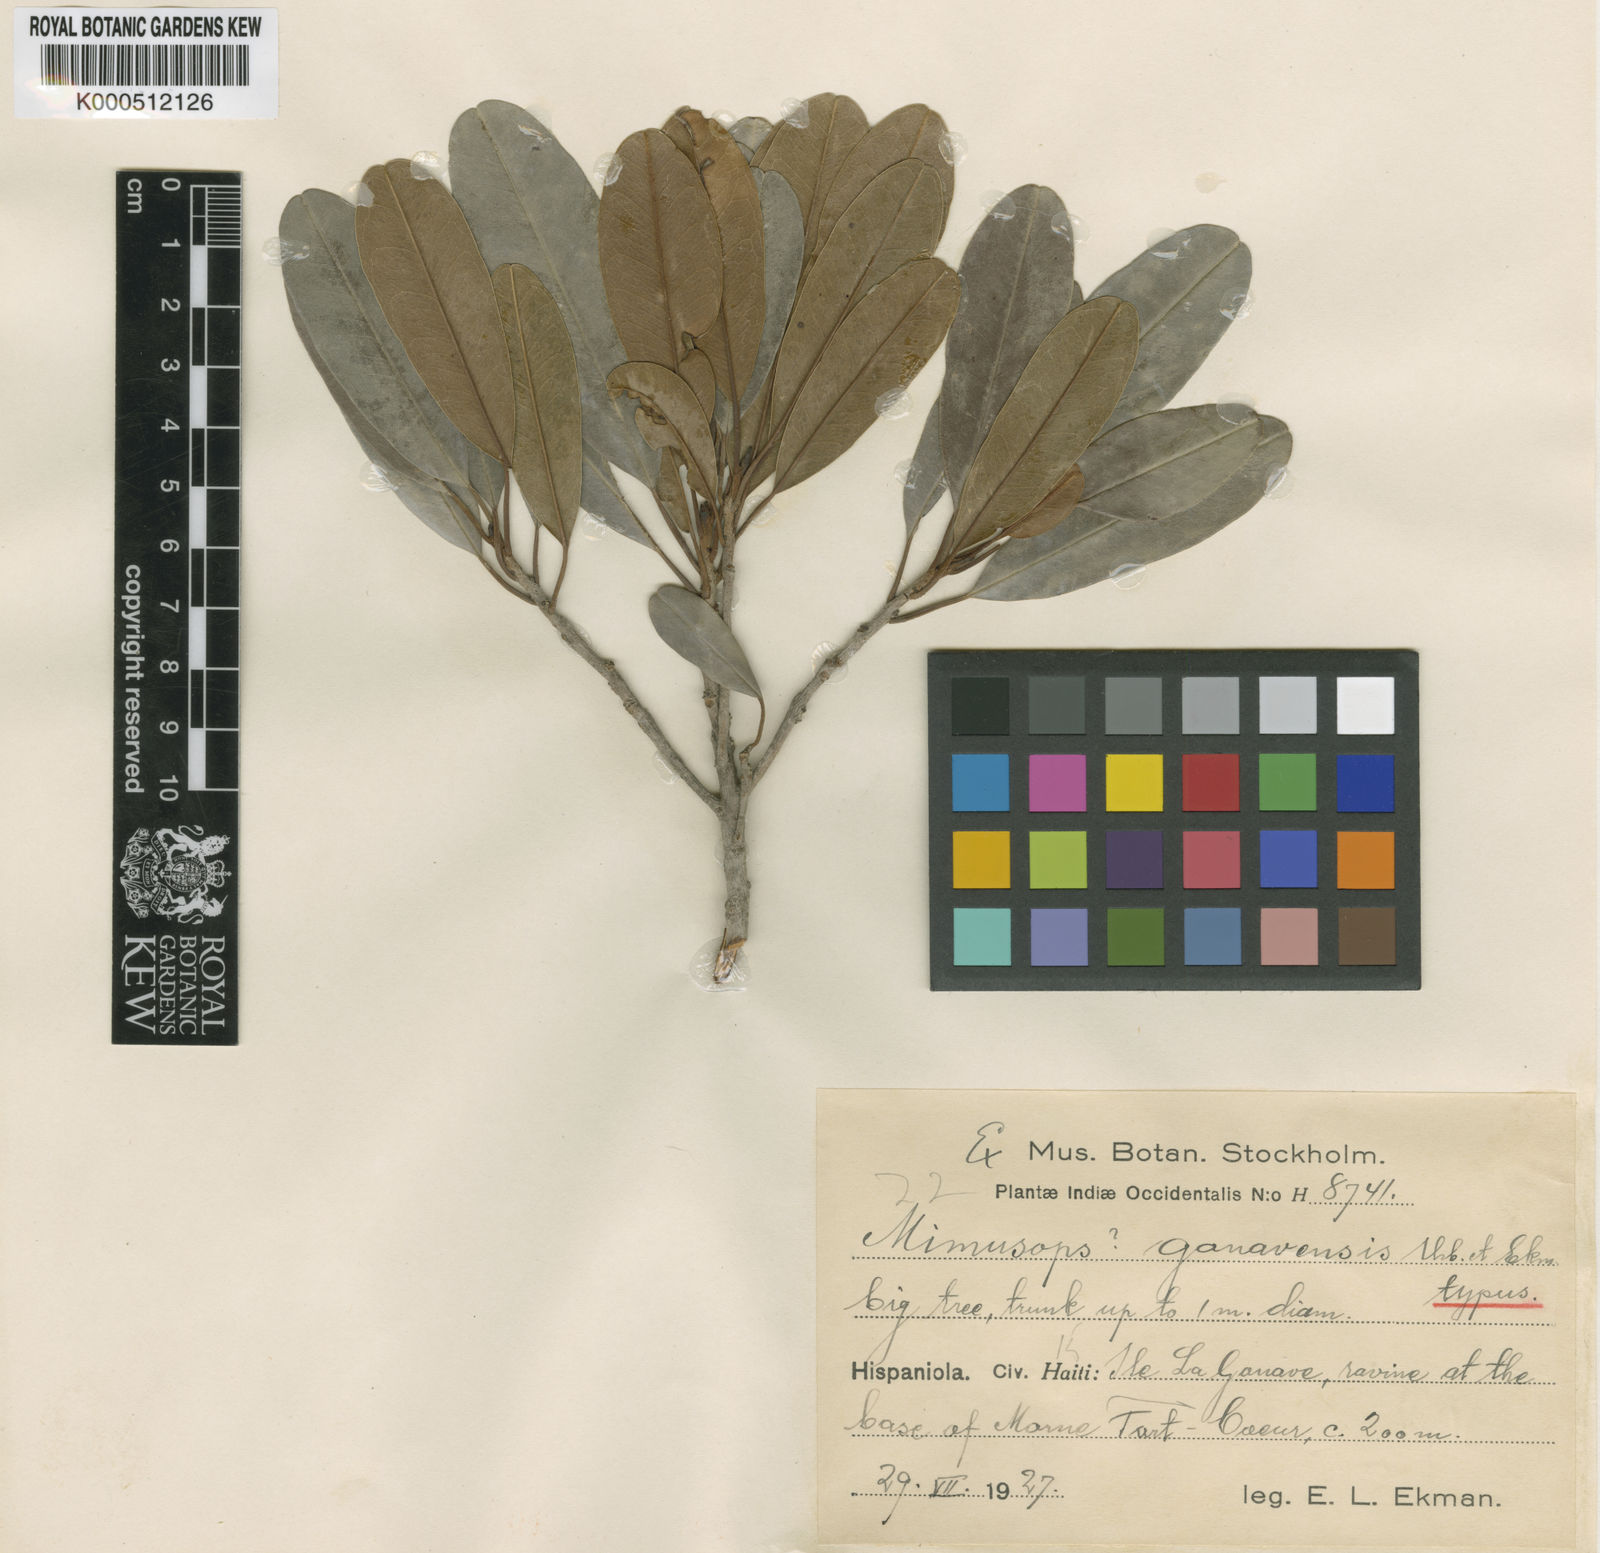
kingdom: Plantae
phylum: Tracheophyta
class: Magnoliopsida
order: Ericales
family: Sapotaceae
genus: Manilkara
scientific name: Manilkara gonavensis
